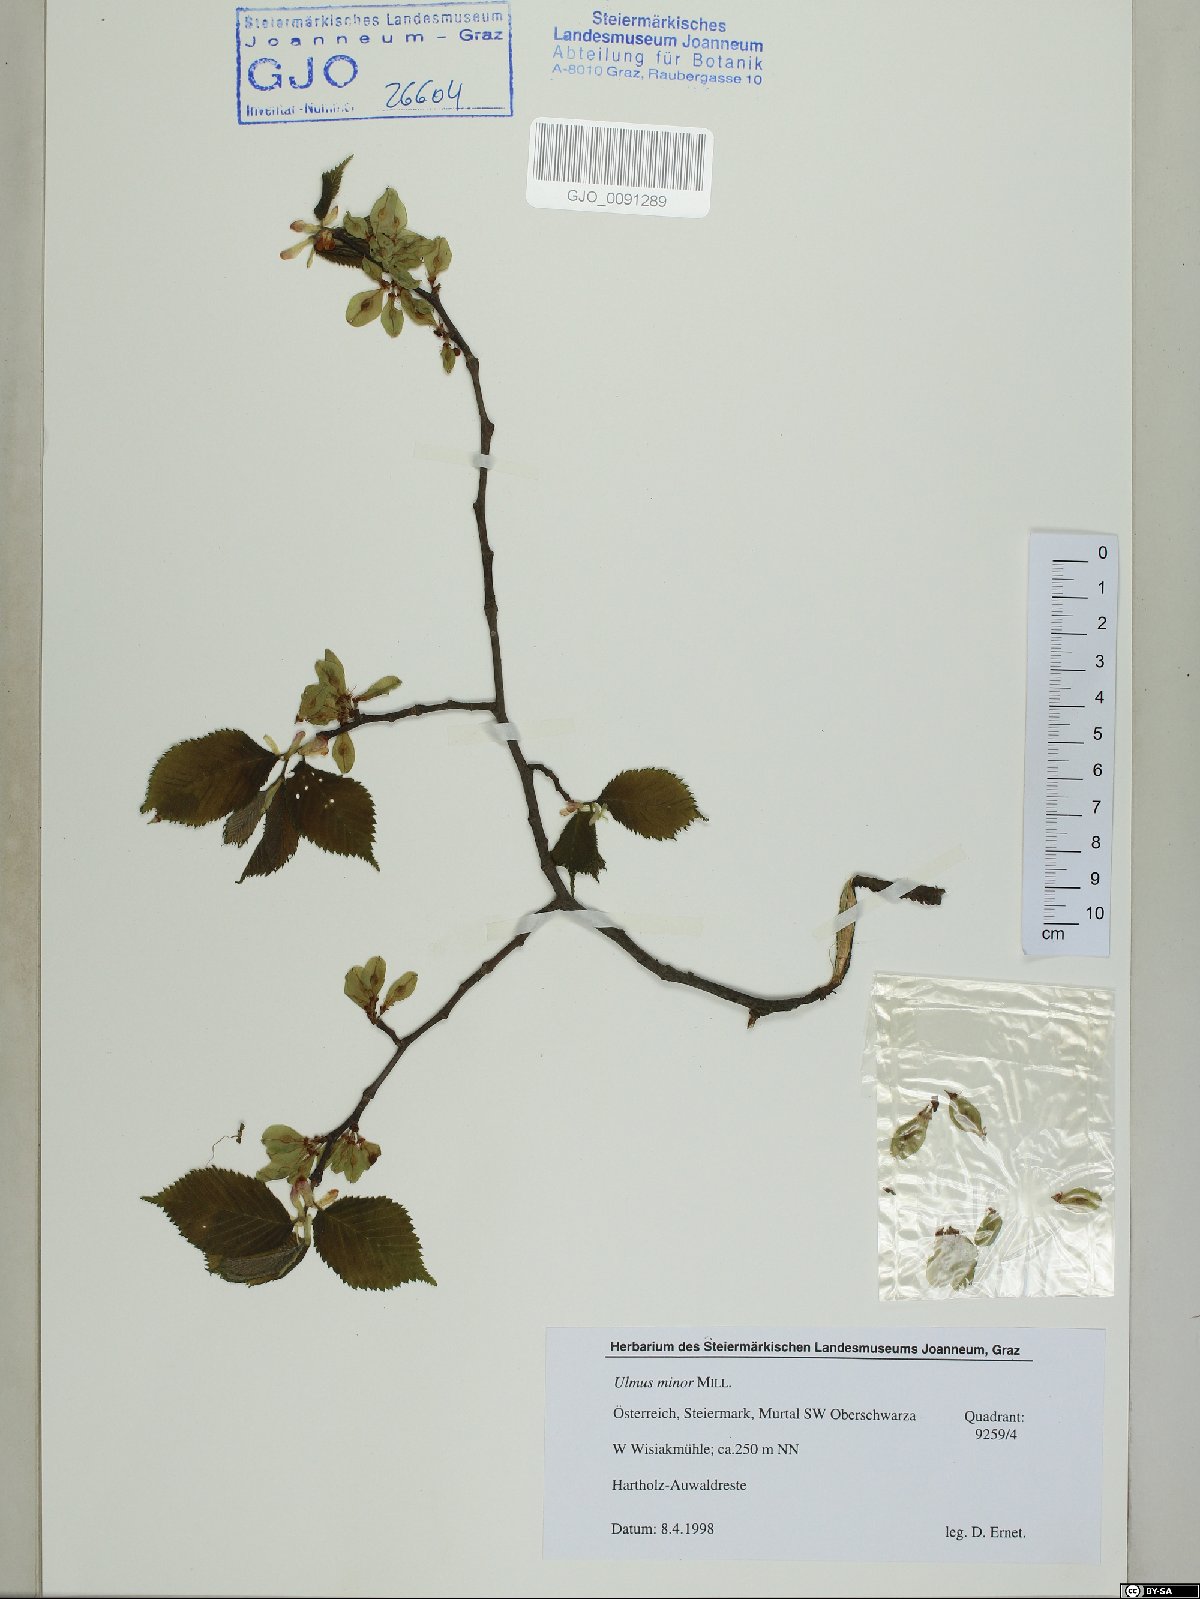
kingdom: Plantae
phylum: Tracheophyta
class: Magnoliopsida
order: Rosales
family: Ulmaceae
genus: Ulmus
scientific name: Ulmus minor
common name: Small-leaved elm
